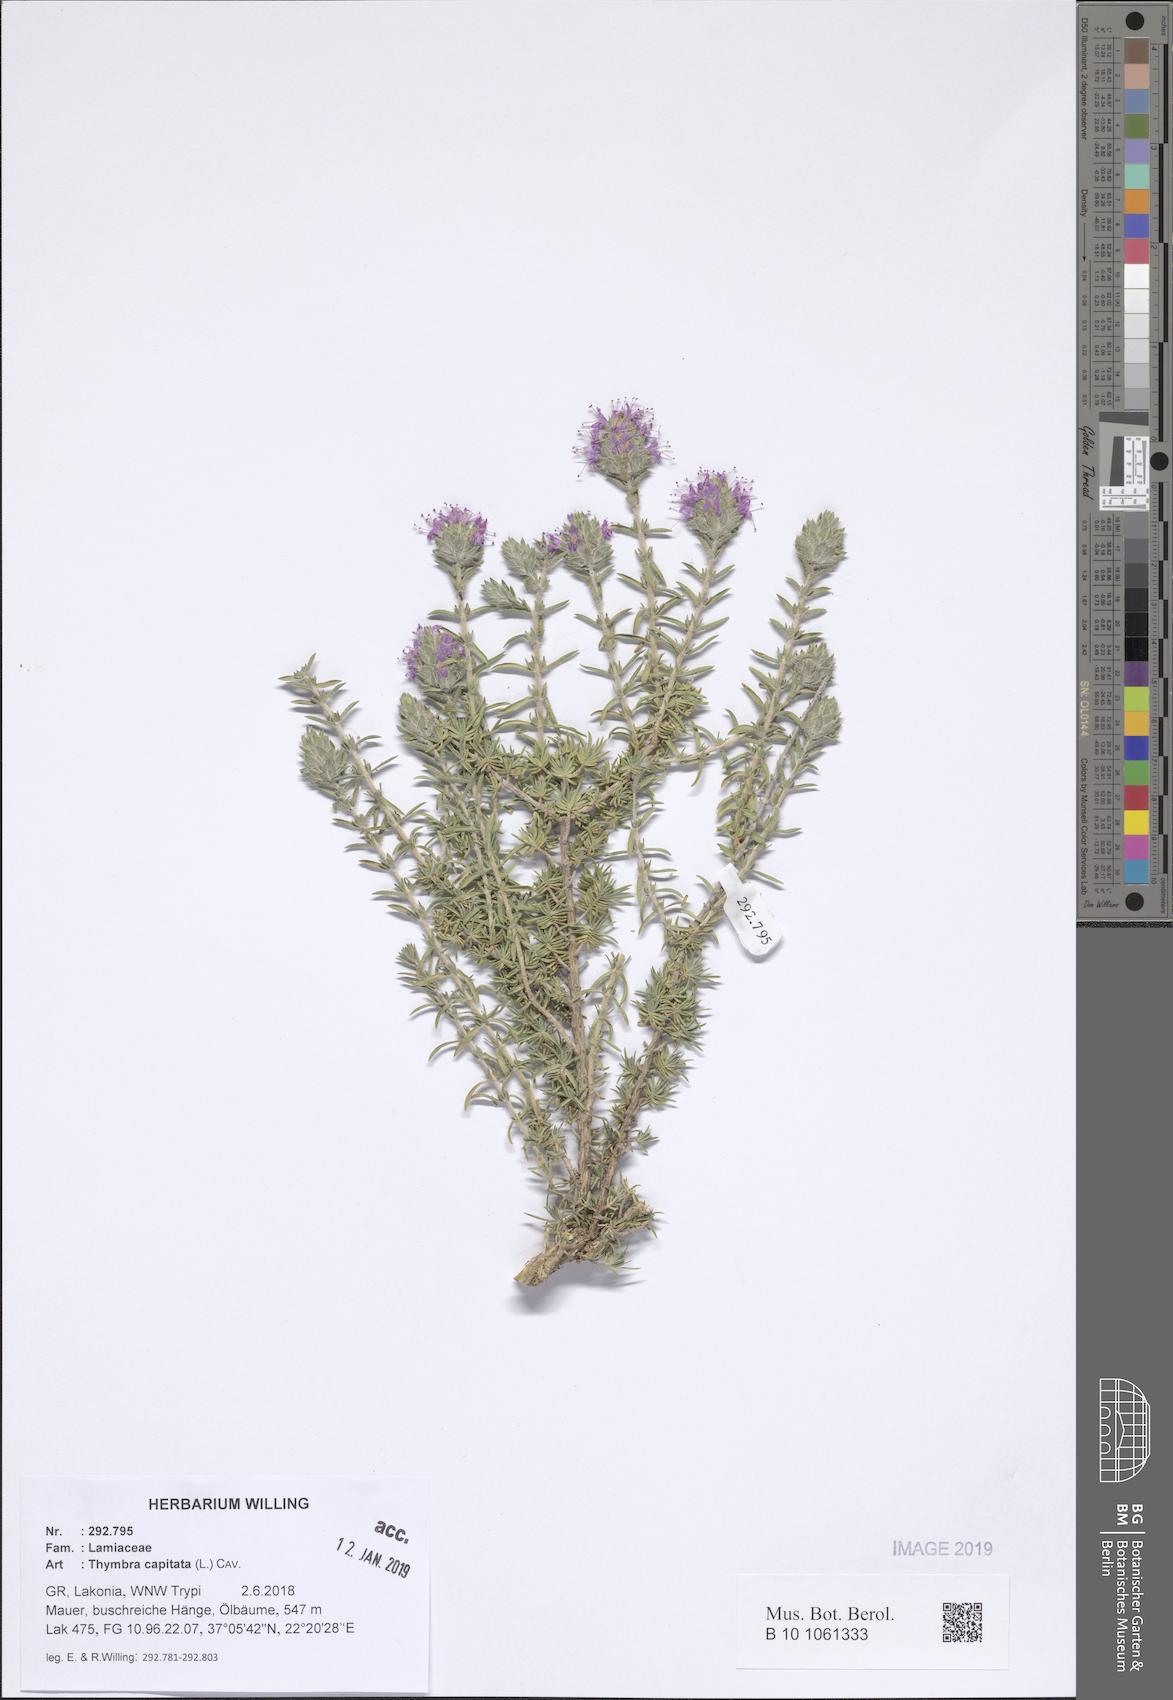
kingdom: Plantae
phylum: Tracheophyta
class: Magnoliopsida
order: Lamiales
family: Lamiaceae
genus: Thymbra
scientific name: Thymbra capitata
